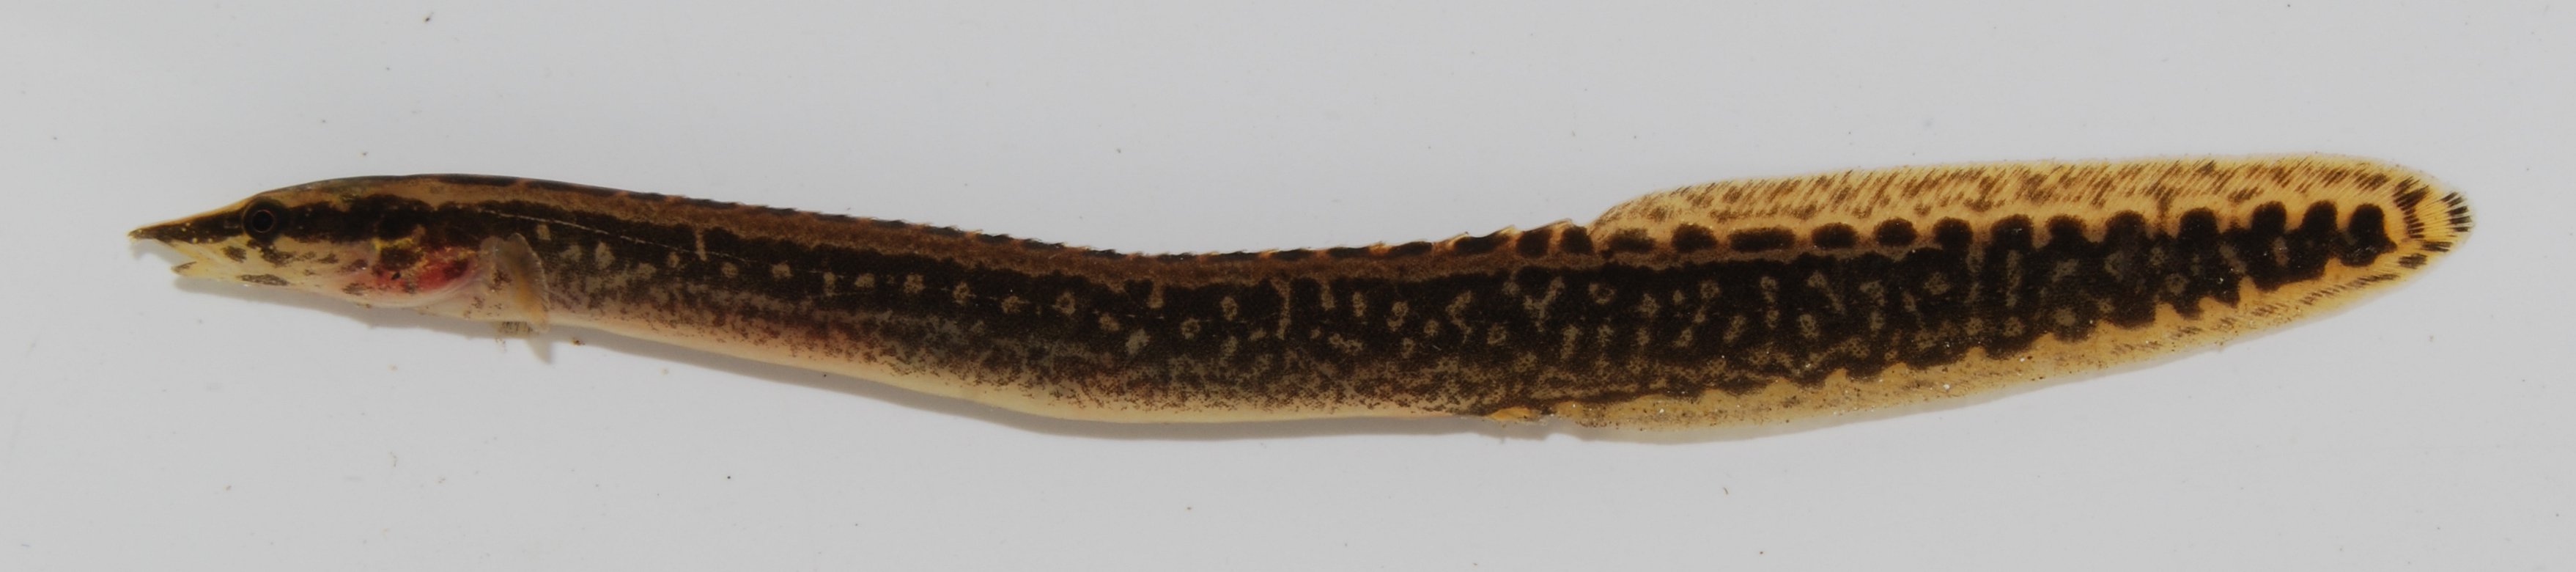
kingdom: Animalia
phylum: Chordata
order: Synbranchiformes
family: Mastacembelidae
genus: Mastacembelus
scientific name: Mastacembelus frenatus
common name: East african spiny eel
